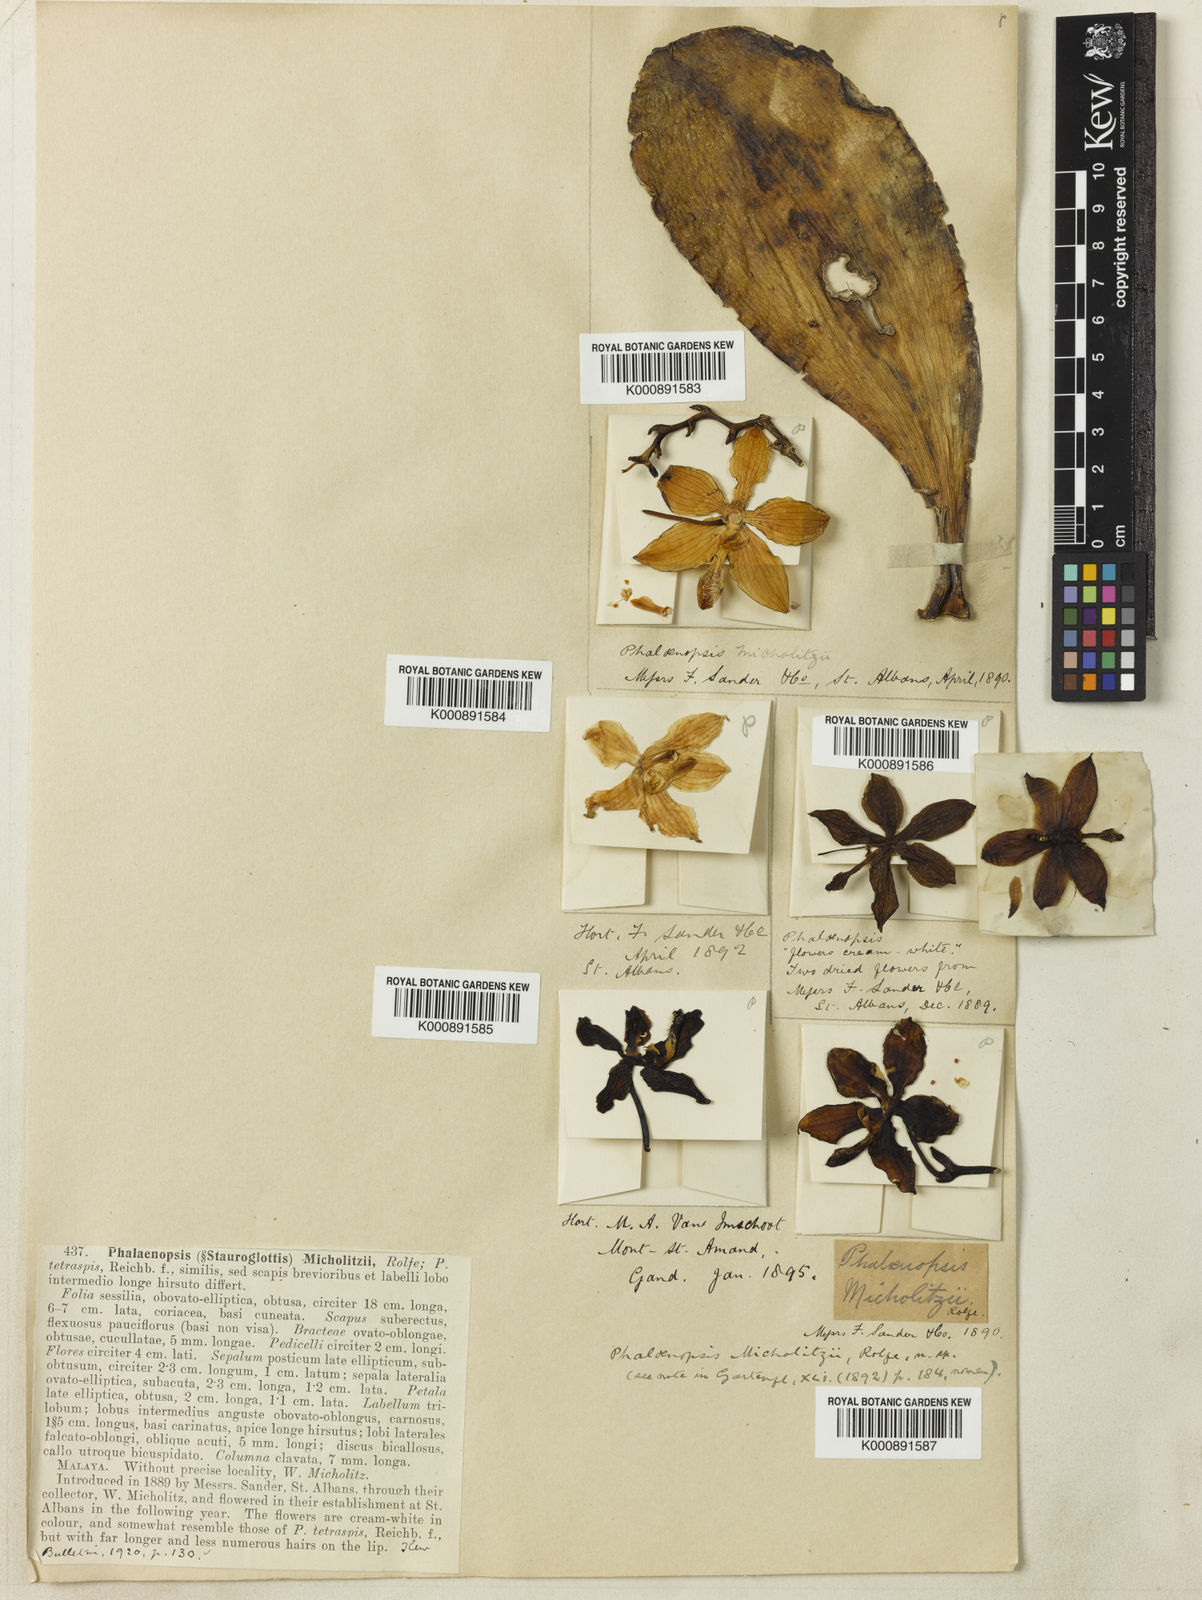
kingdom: Plantae
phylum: Tracheophyta
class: Liliopsida
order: Asparagales
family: Orchidaceae
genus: Phalaenopsis
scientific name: Phalaenopsis
